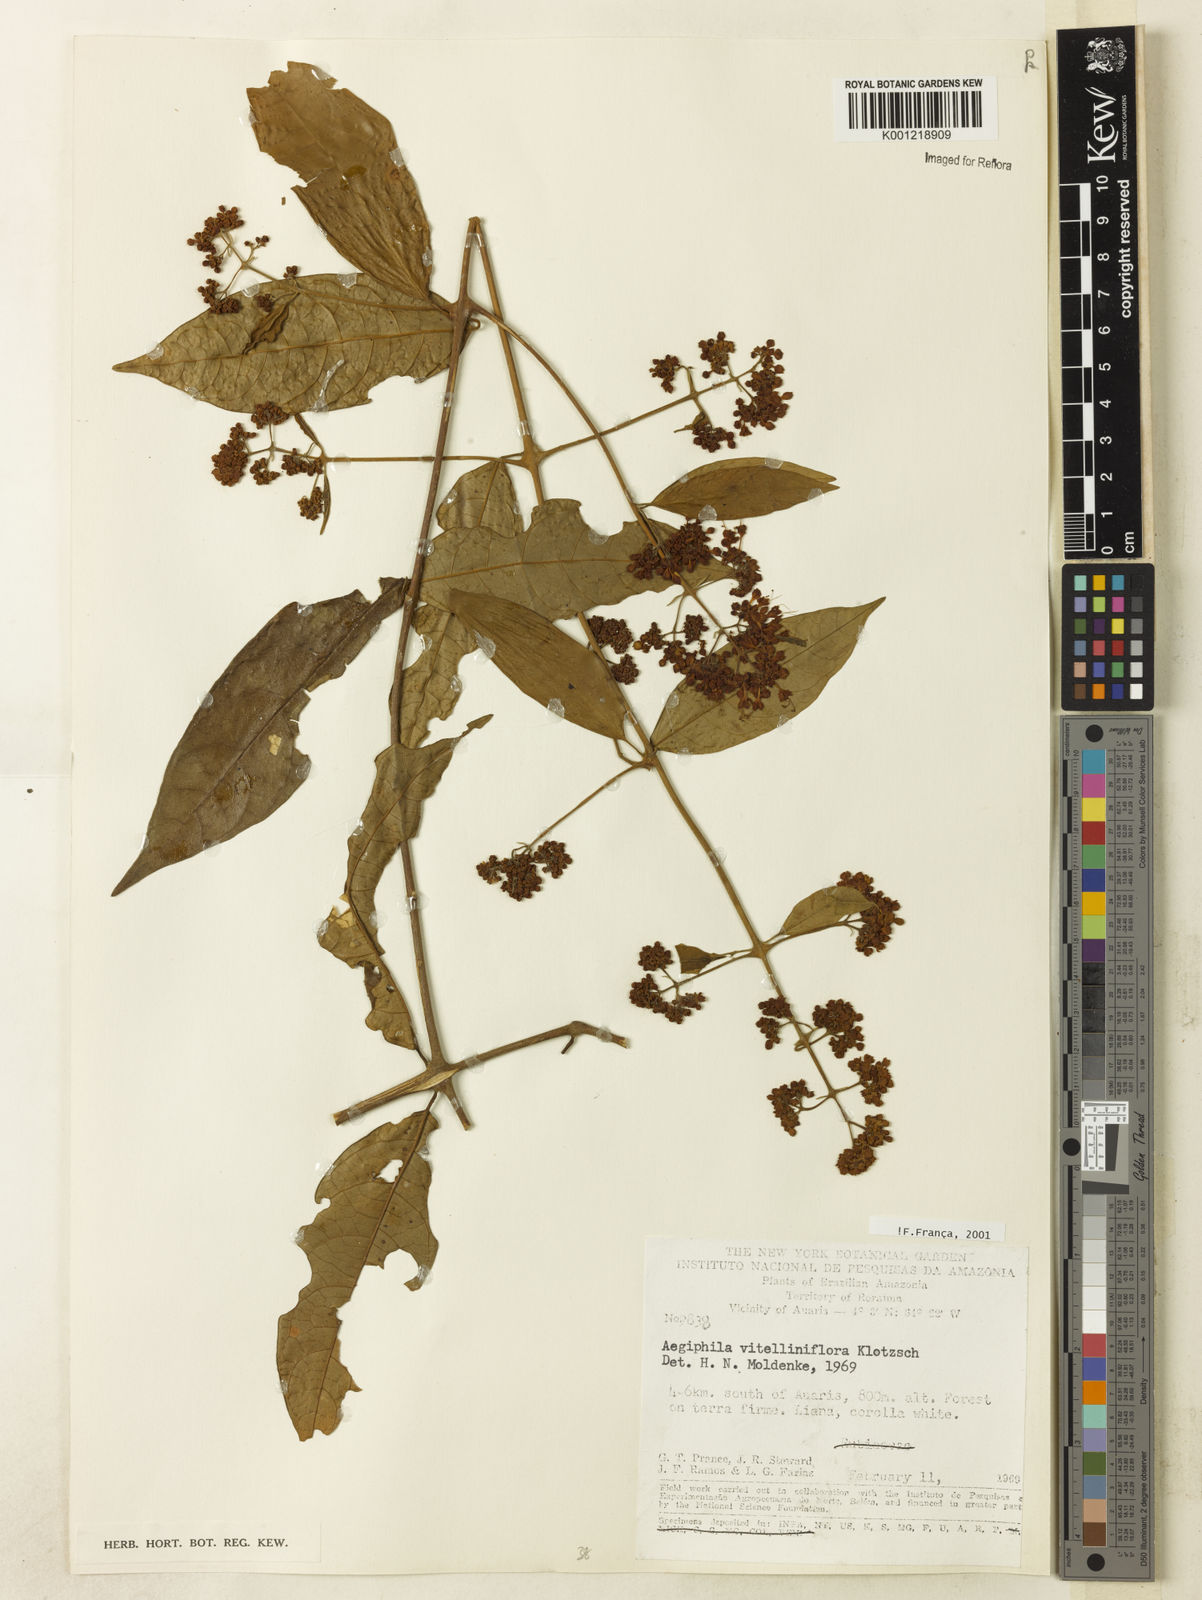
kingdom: Plantae
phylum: Tracheophyta
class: Magnoliopsida
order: Lamiales
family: Lamiaceae
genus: Aegiphila
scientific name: Aegiphila
